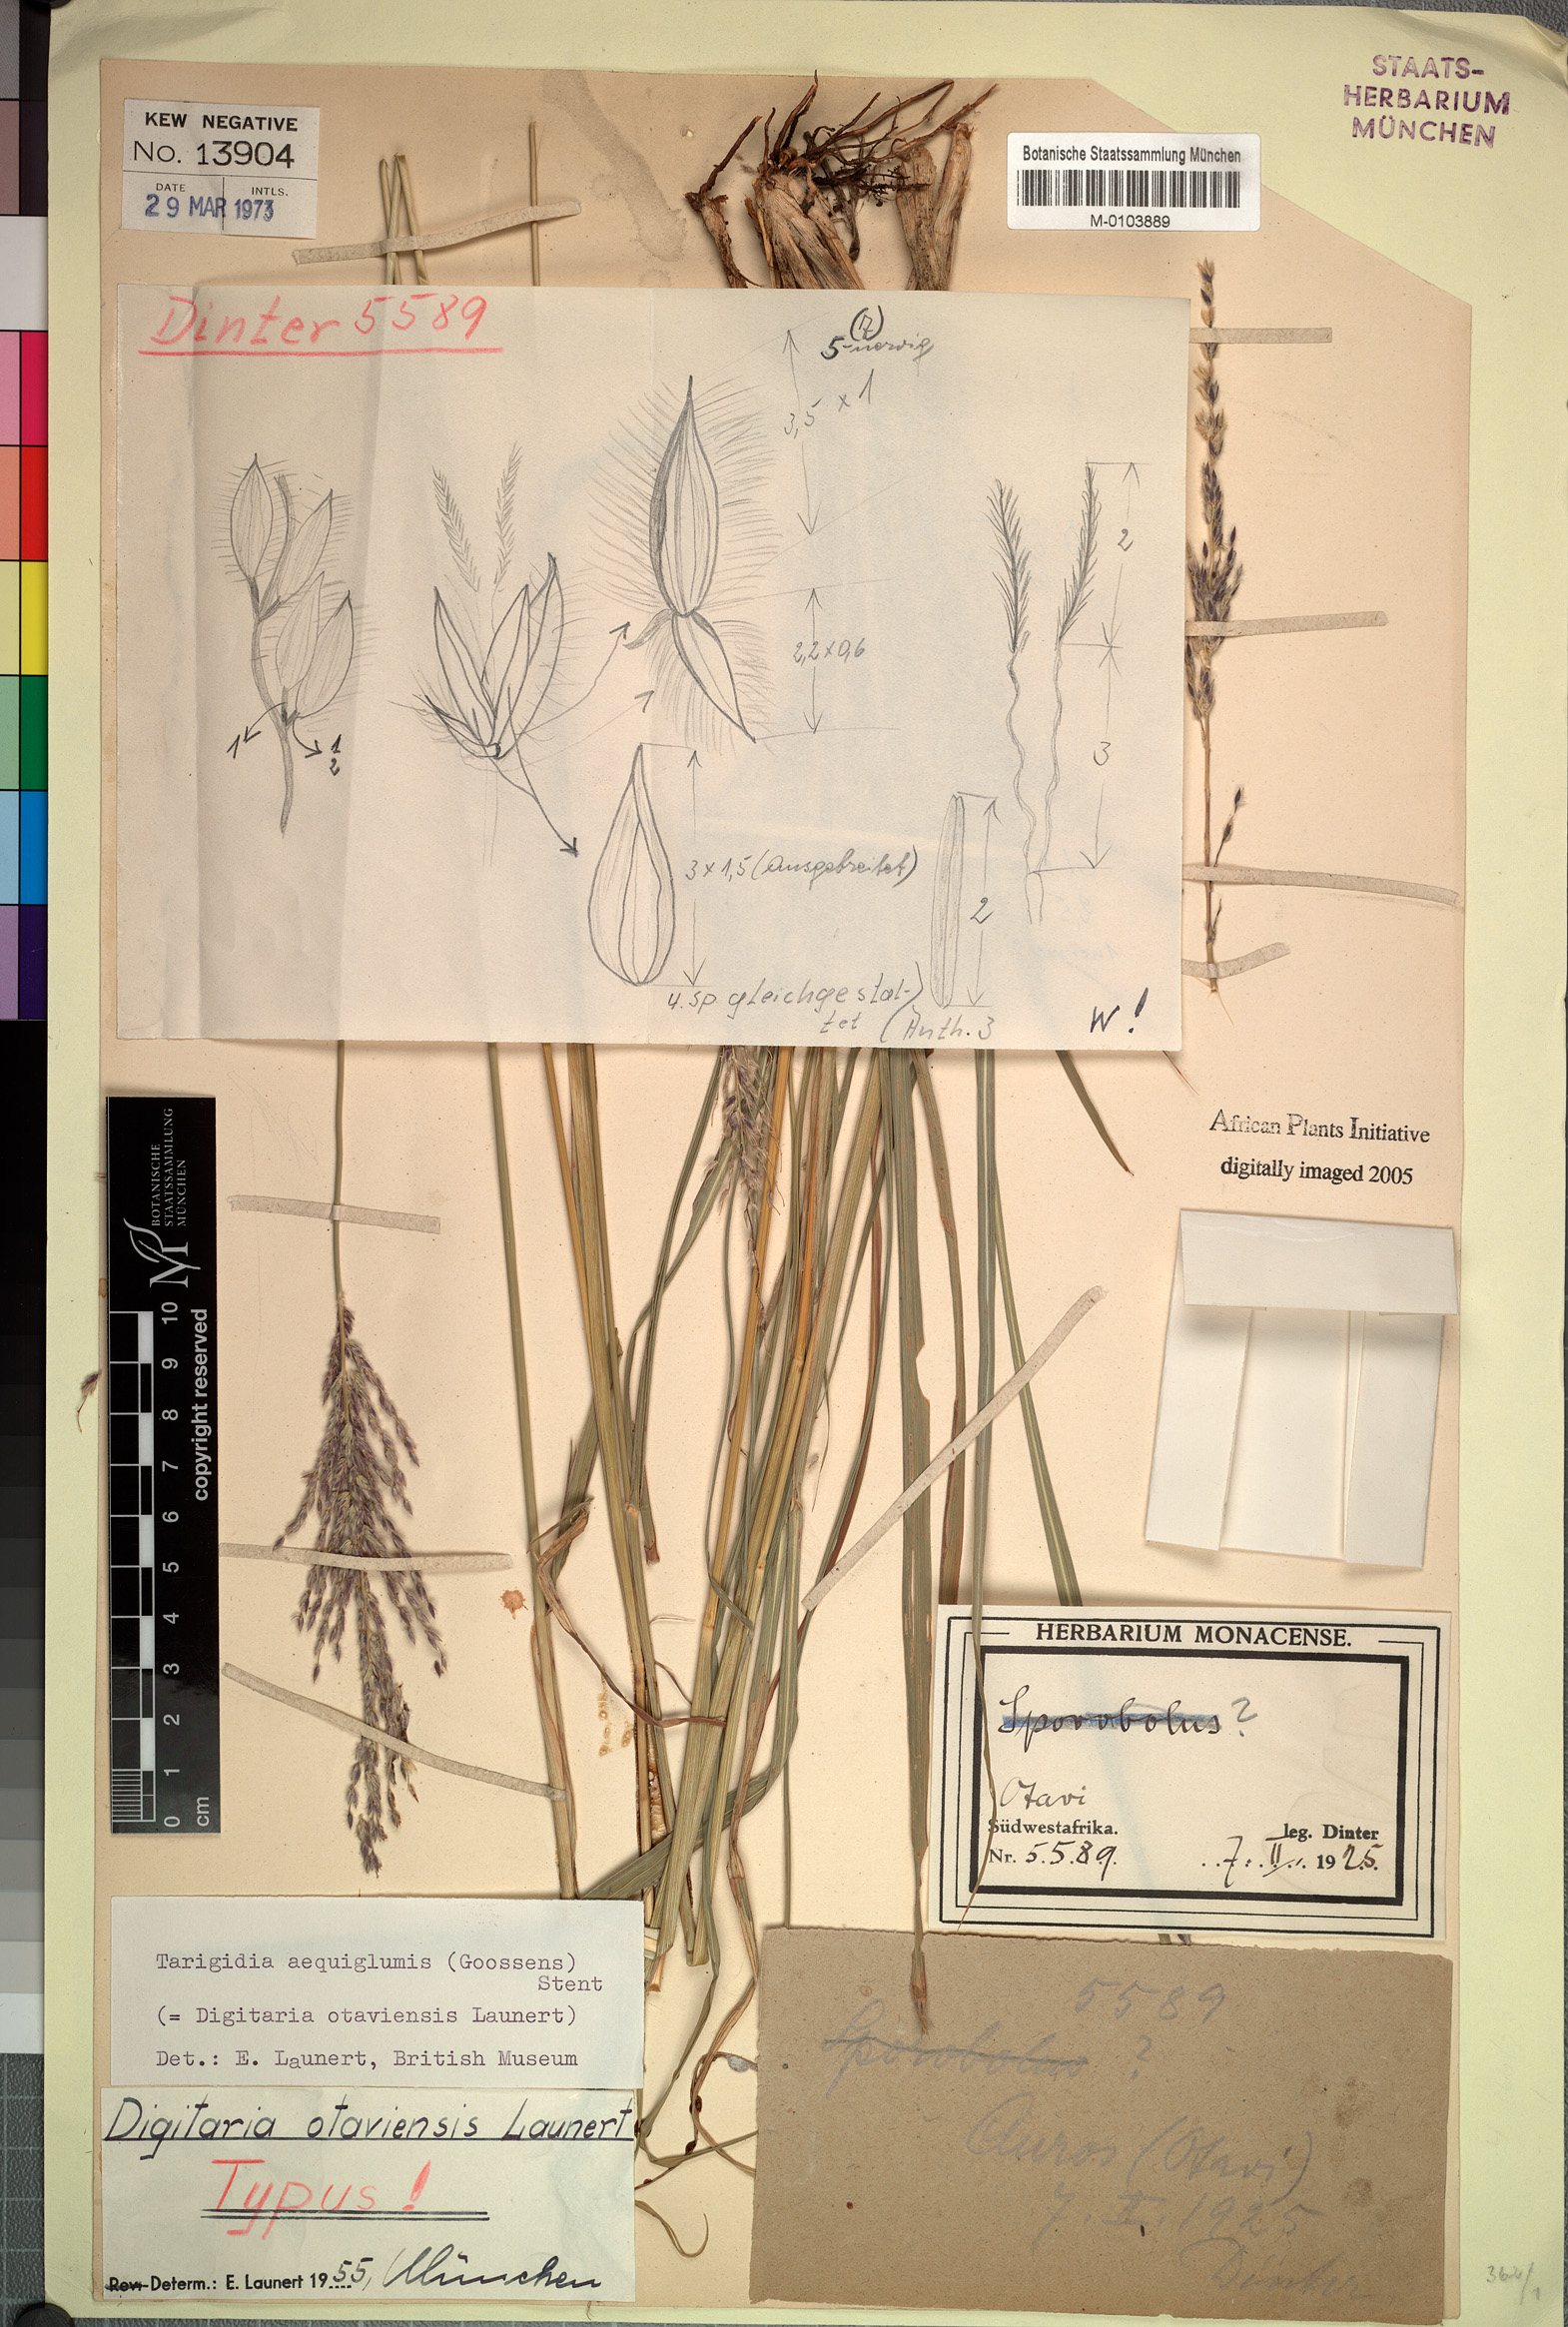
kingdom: Plantae
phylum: Tracheophyta
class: Liliopsida
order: Poales
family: Poaceae
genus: Tarigidia
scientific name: Tarigidia aequiglumis
